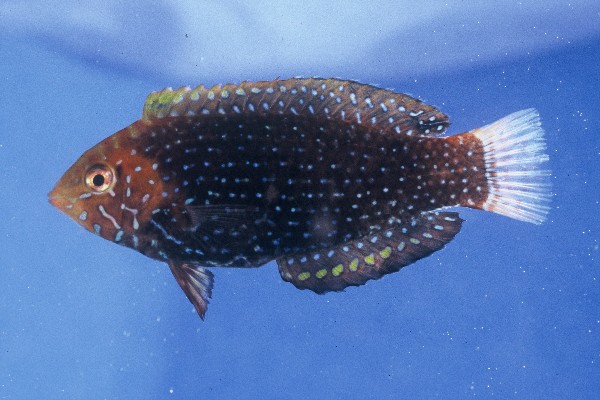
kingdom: Animalia
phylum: Chordata
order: Perciformes
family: Labridae
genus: Macropharyngodon
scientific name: Macropharyngodon cyanoguttatus
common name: Bluespotted wrasse
